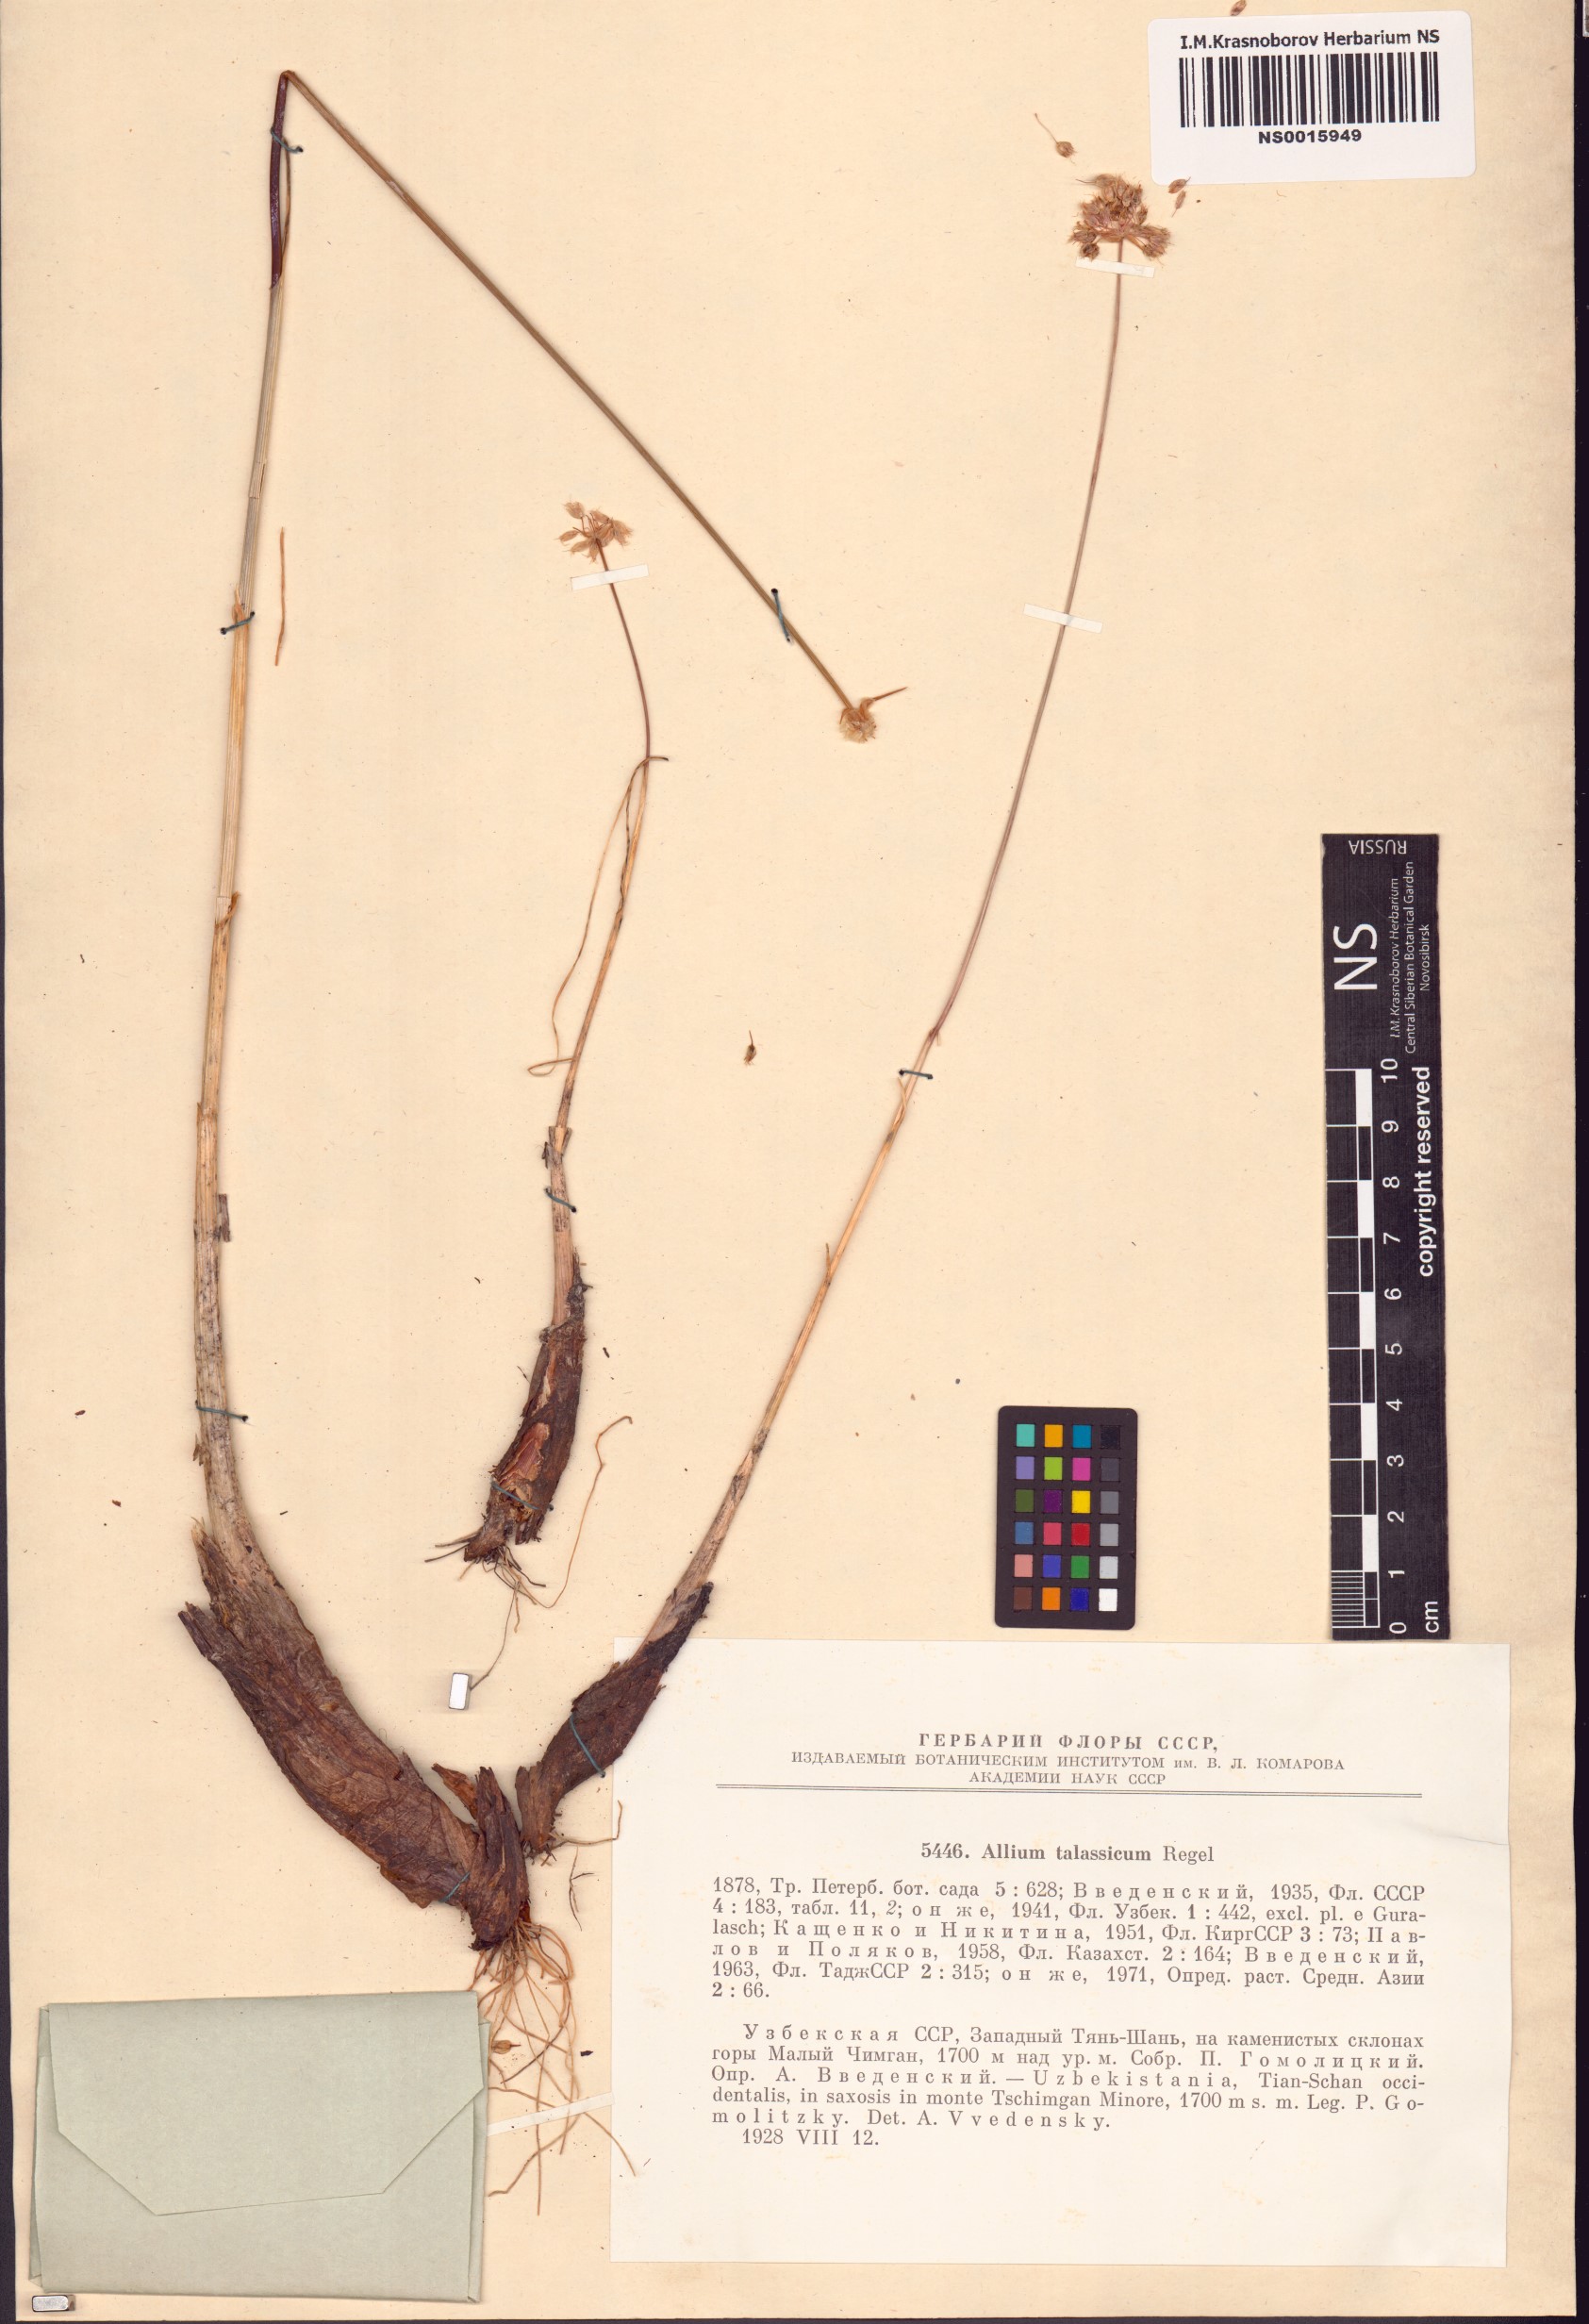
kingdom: Plantae
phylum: Tracheophyta
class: Liliopsida
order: Asparagales
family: Amaryllidaceae
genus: Allium
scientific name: Allium talassicum
